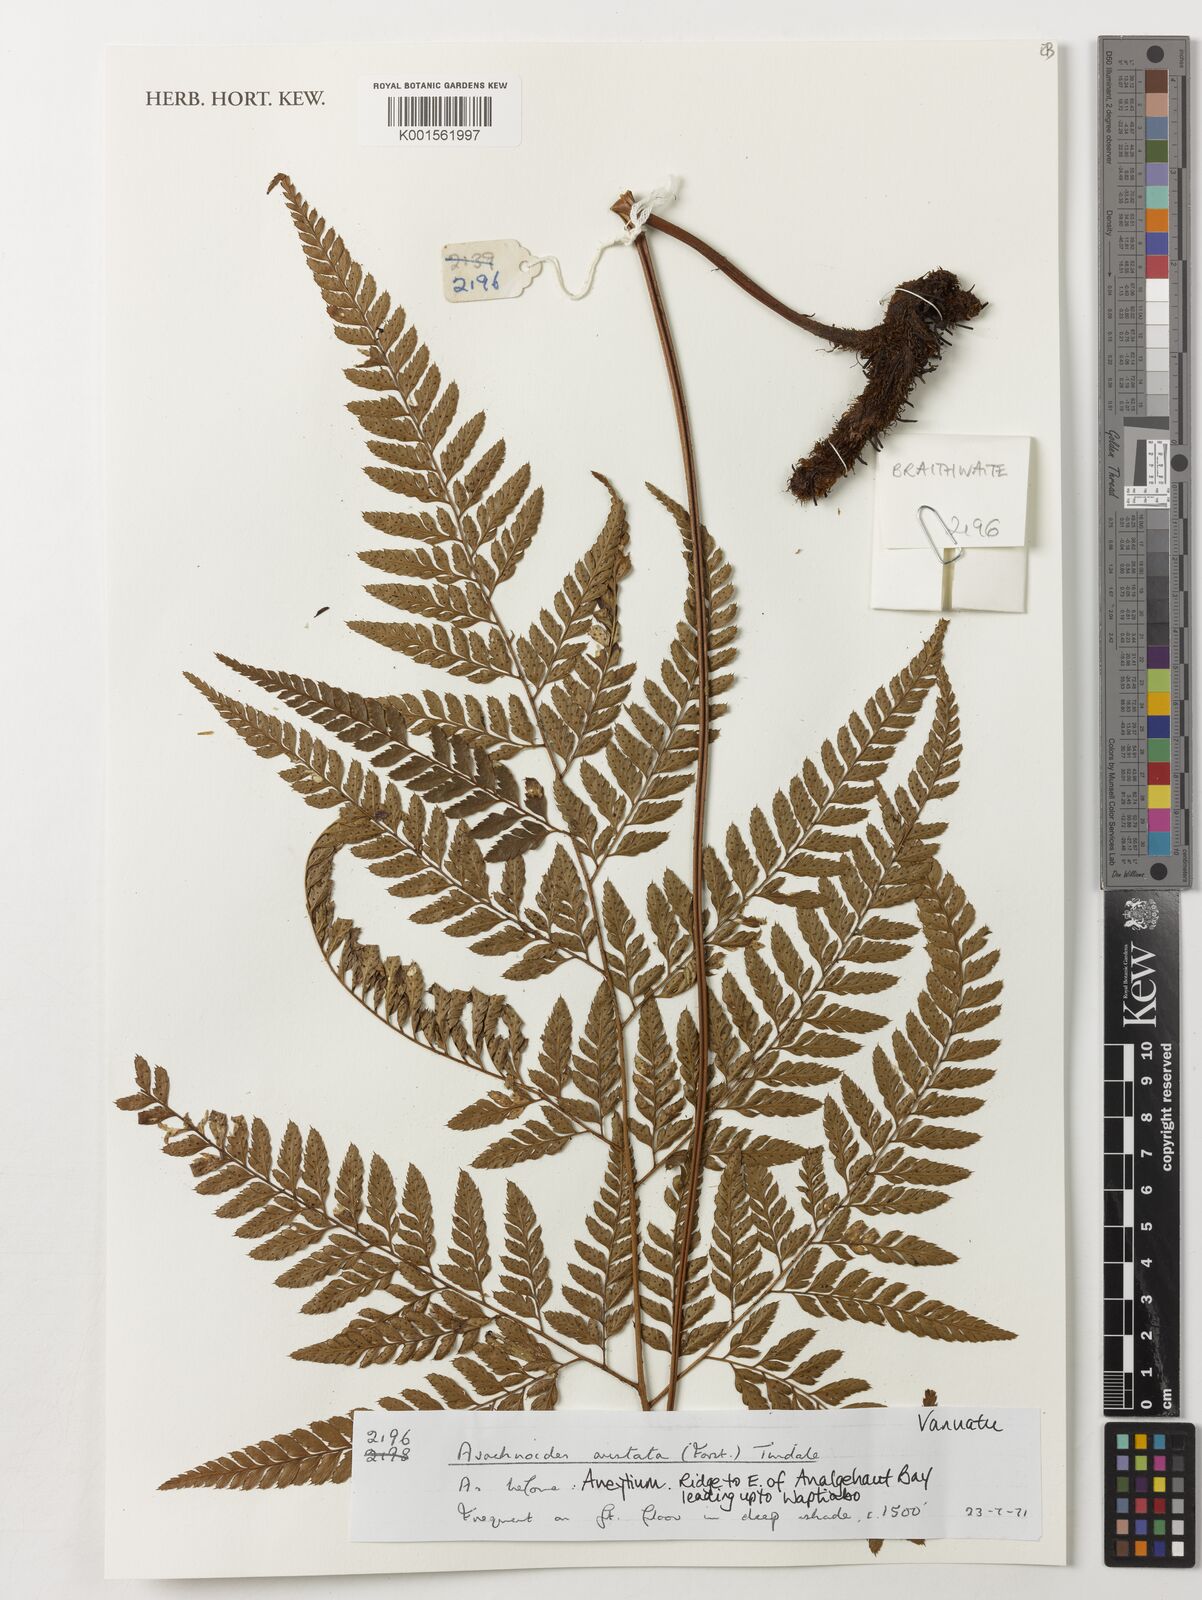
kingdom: Plantae
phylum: Tracheophyta
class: Polypodiopsida
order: Polypodiales
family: Dryopteridaceae
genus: Arachniodes
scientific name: Arachniodes aristata
